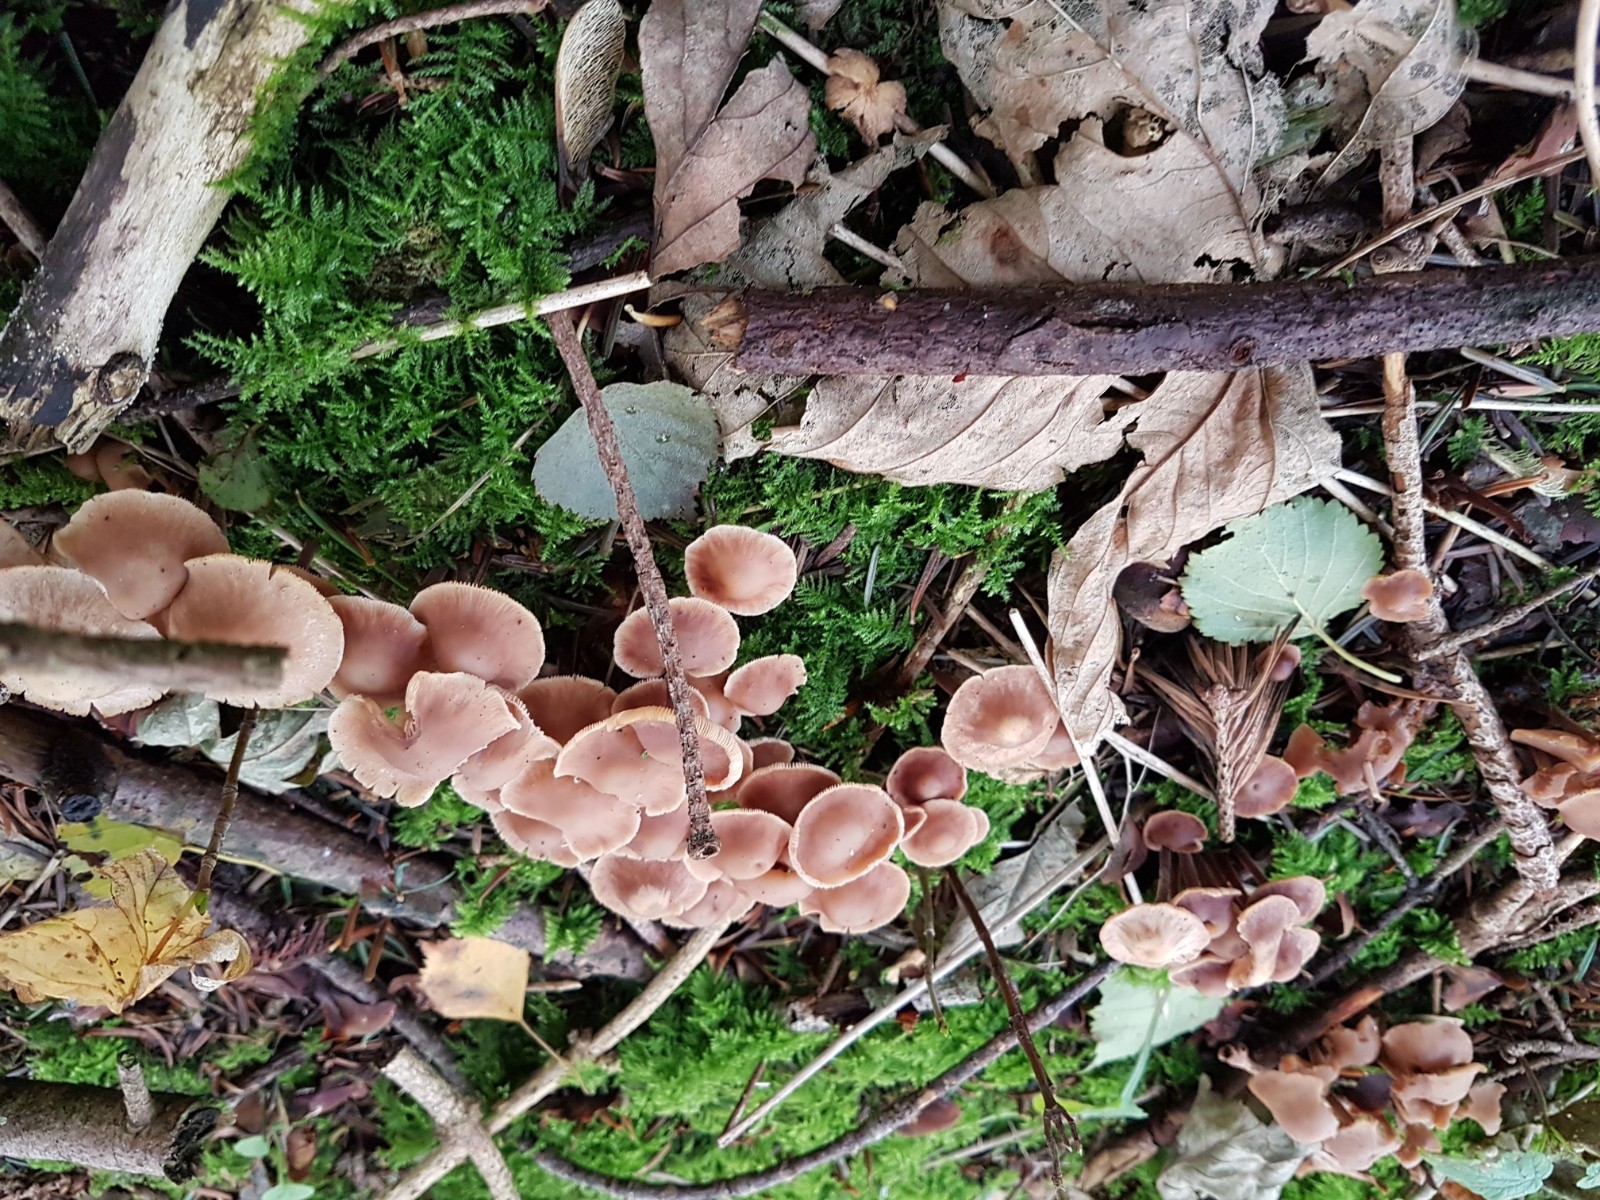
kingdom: Fungi
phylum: Basidiomycota
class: Agaricomycetes
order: Agaricales
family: Omphalotaceae
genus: Gymnopus
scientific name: Gymnopus
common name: fladhat
